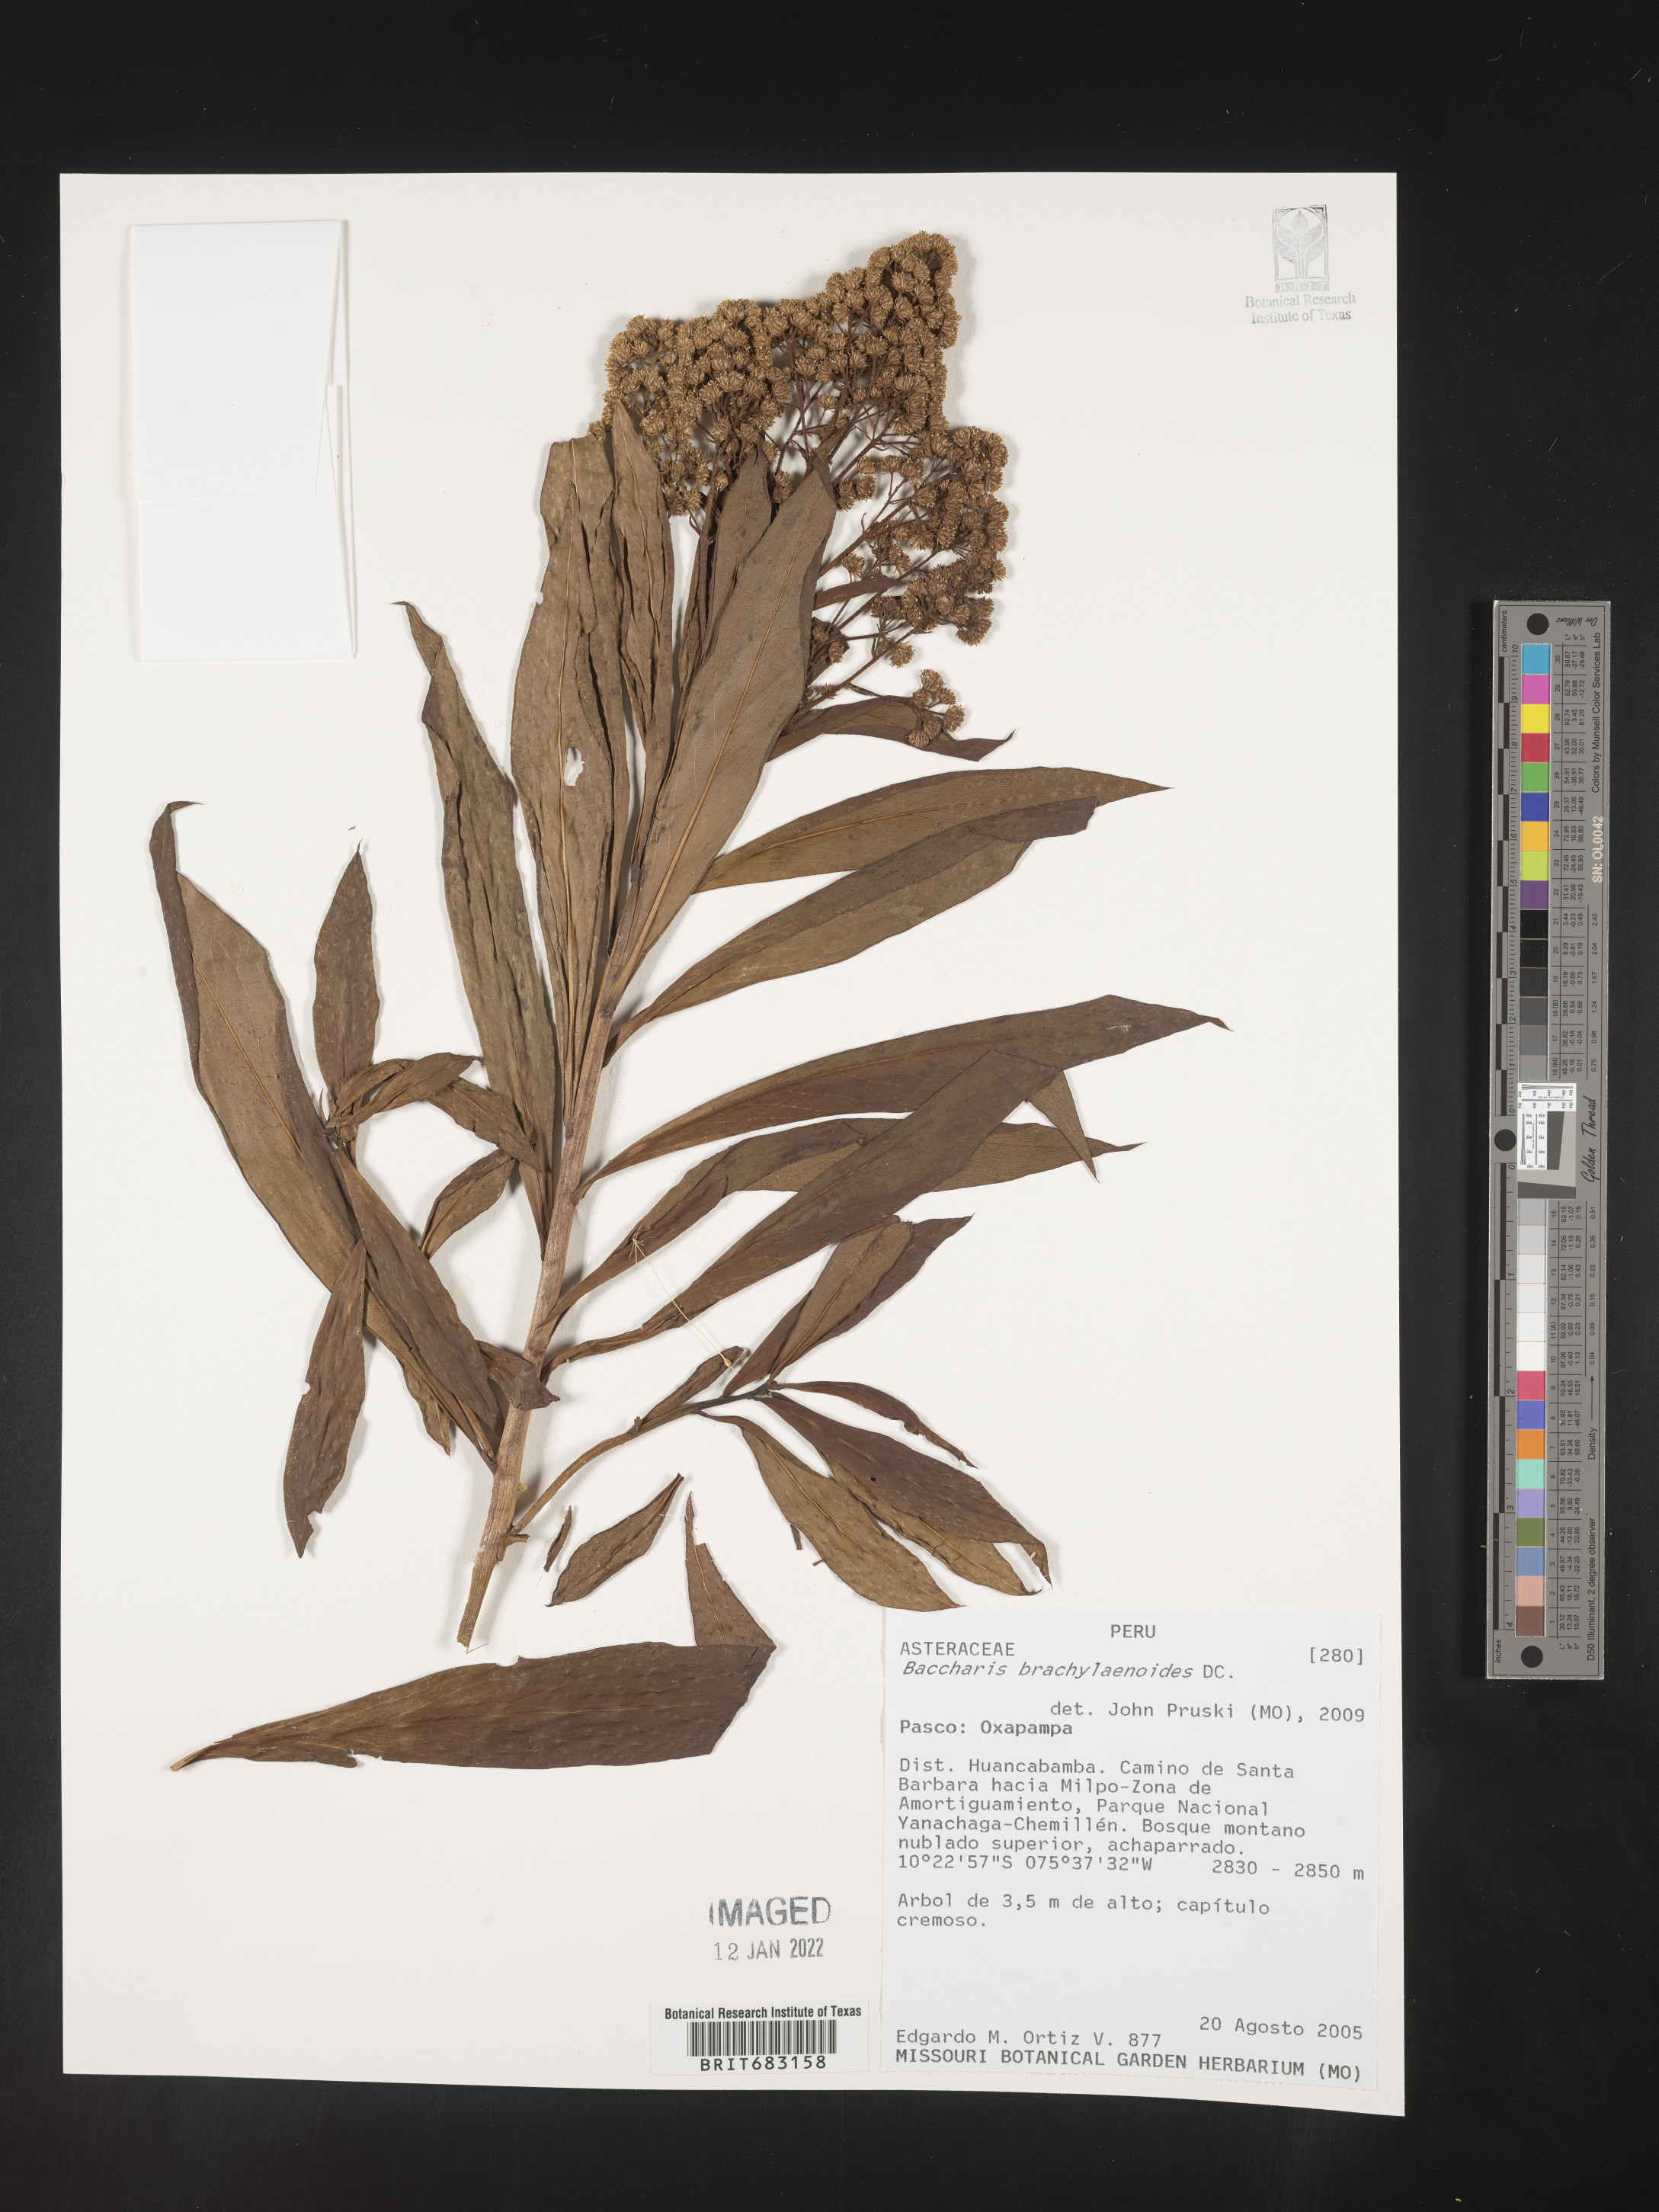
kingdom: Plantae
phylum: Tracheophyta
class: Magnoliopsida
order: Asterales
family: Asteraceae
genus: Baccharis
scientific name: Baccharis
